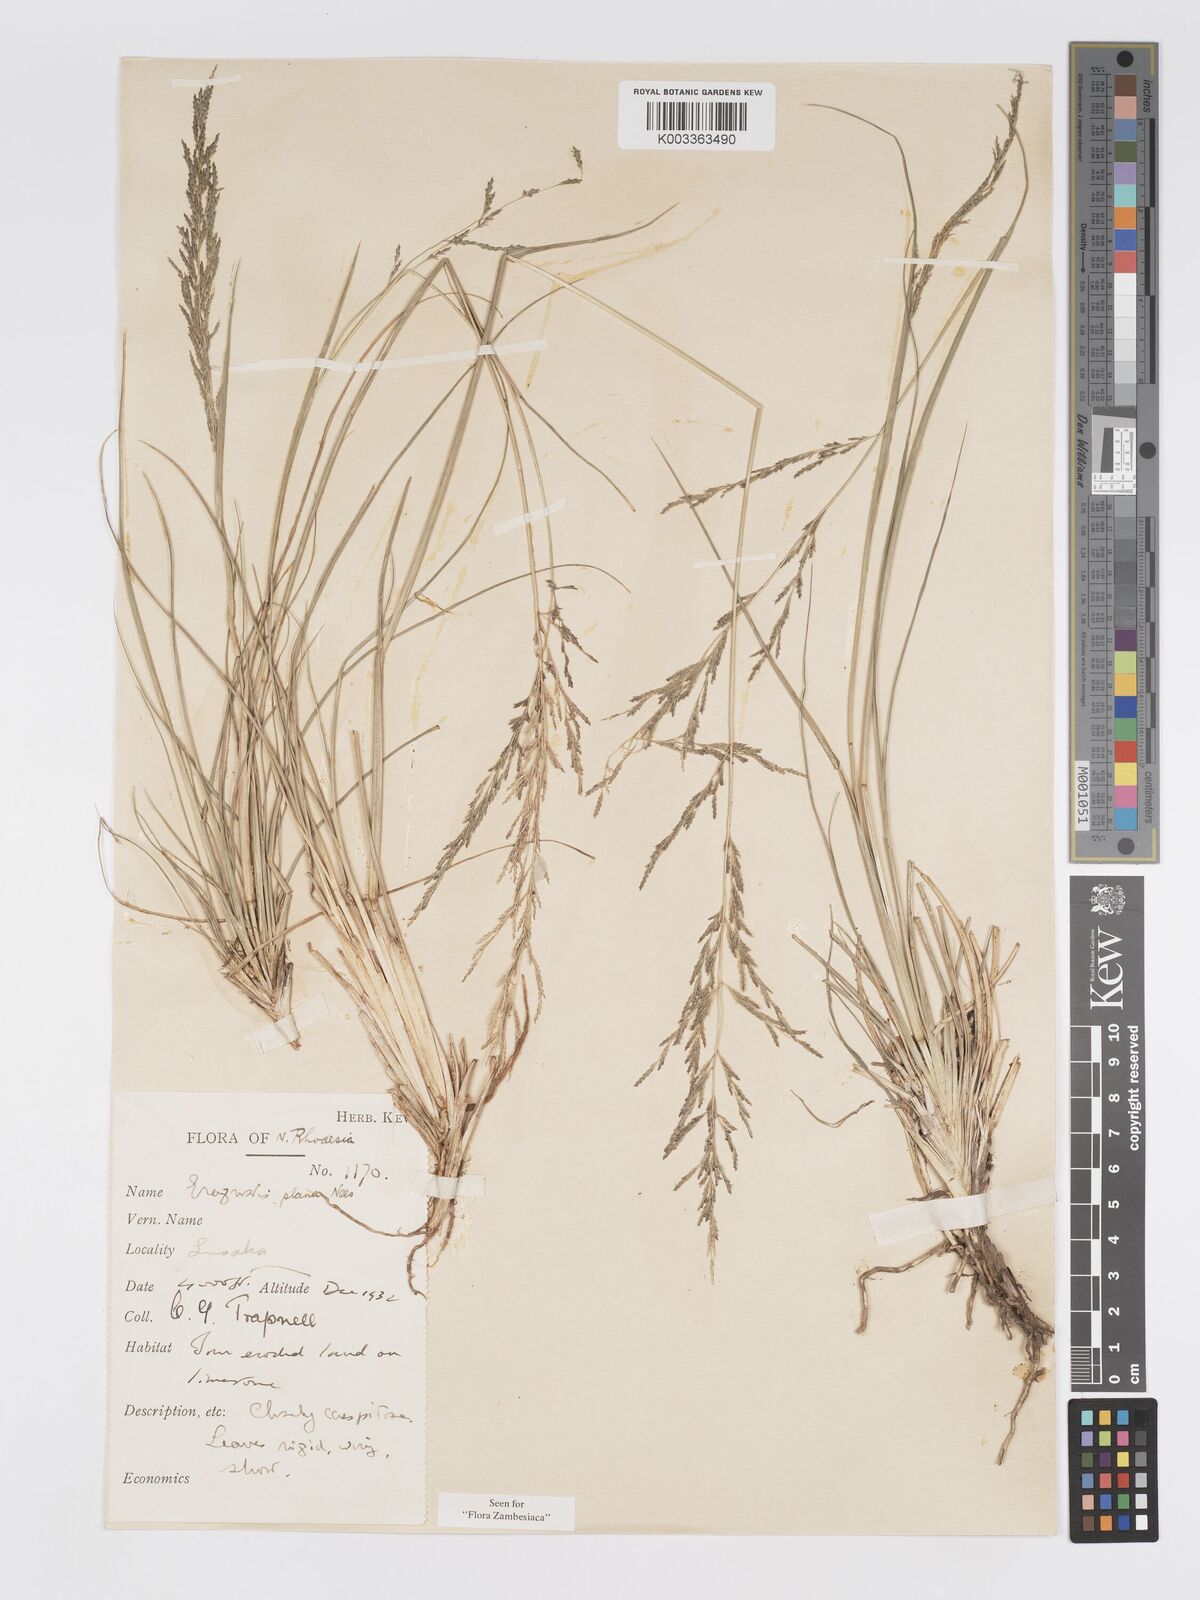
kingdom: Plantae
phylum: Tracheophyta
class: Liliopsida
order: Poales
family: Poaceae
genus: Eragrostis
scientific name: Eragrostis plana
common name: South african lovegrass
